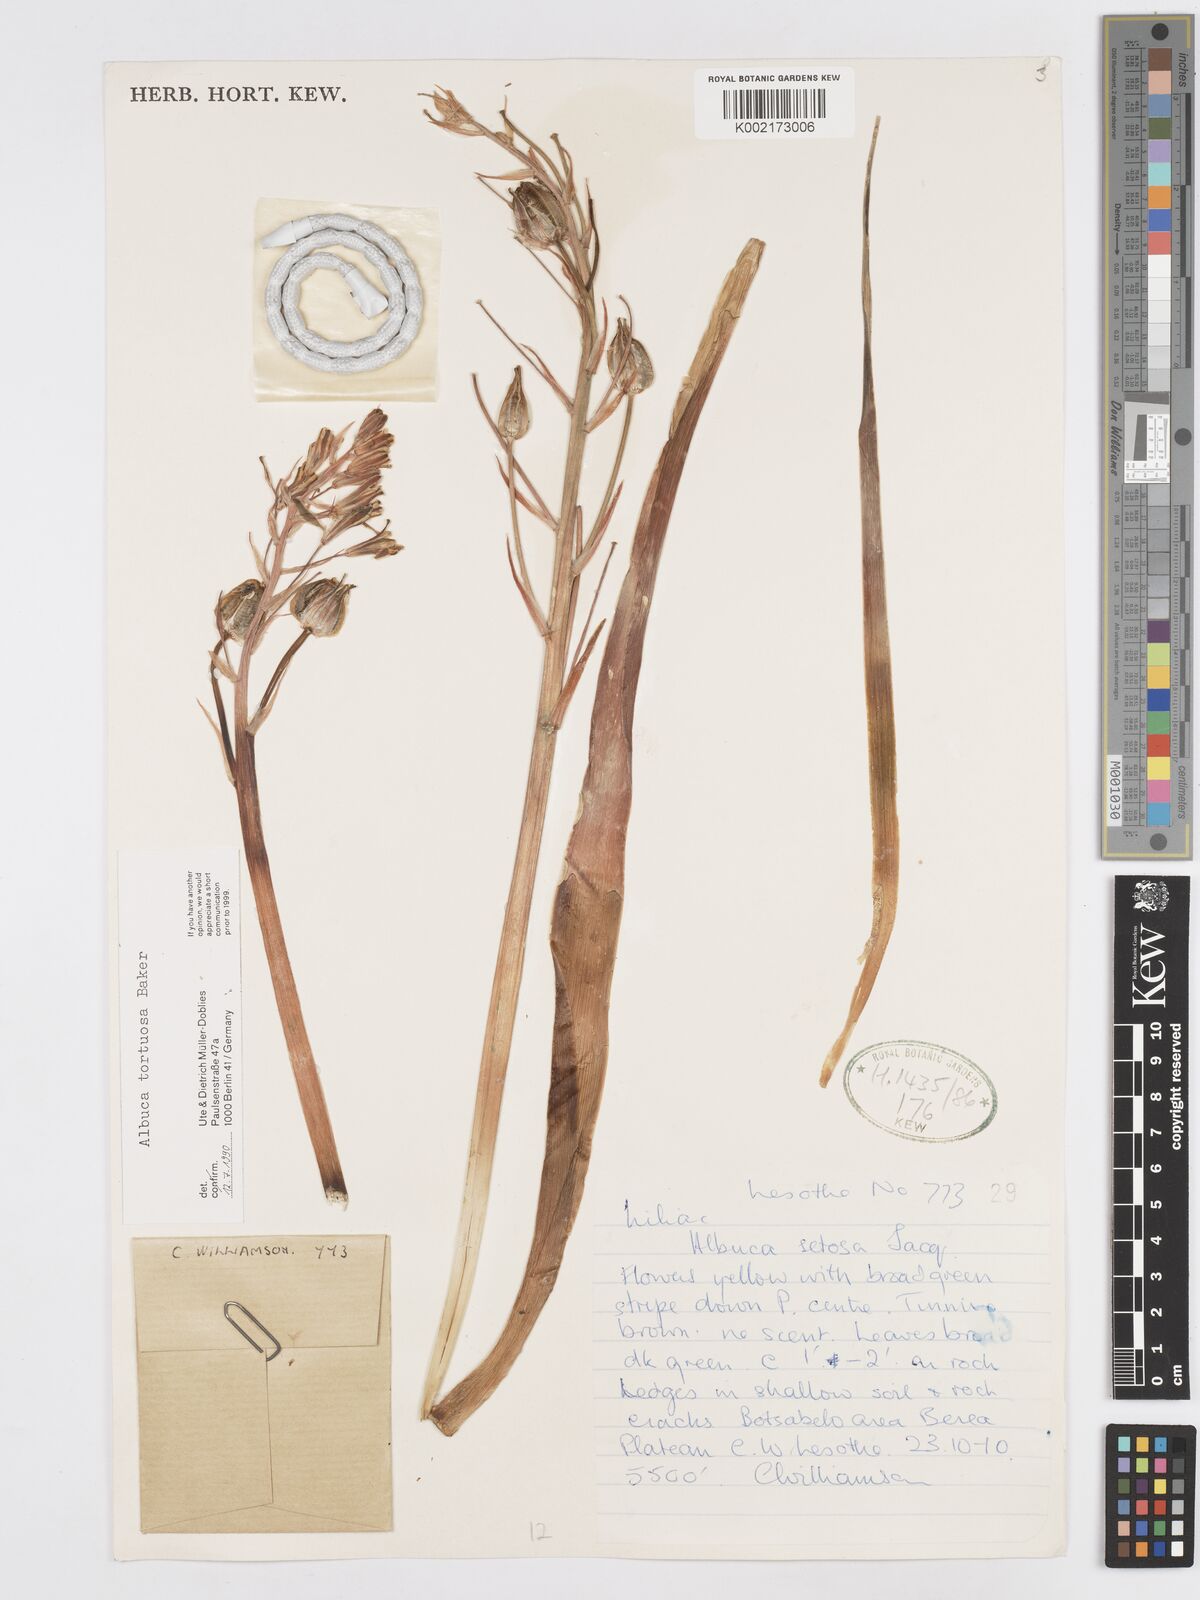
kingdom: Plantae
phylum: Tracheophyta
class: Liliopsida
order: Asparagales
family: Asparagaceae
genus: Albuca
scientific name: Albuca tortuosa
